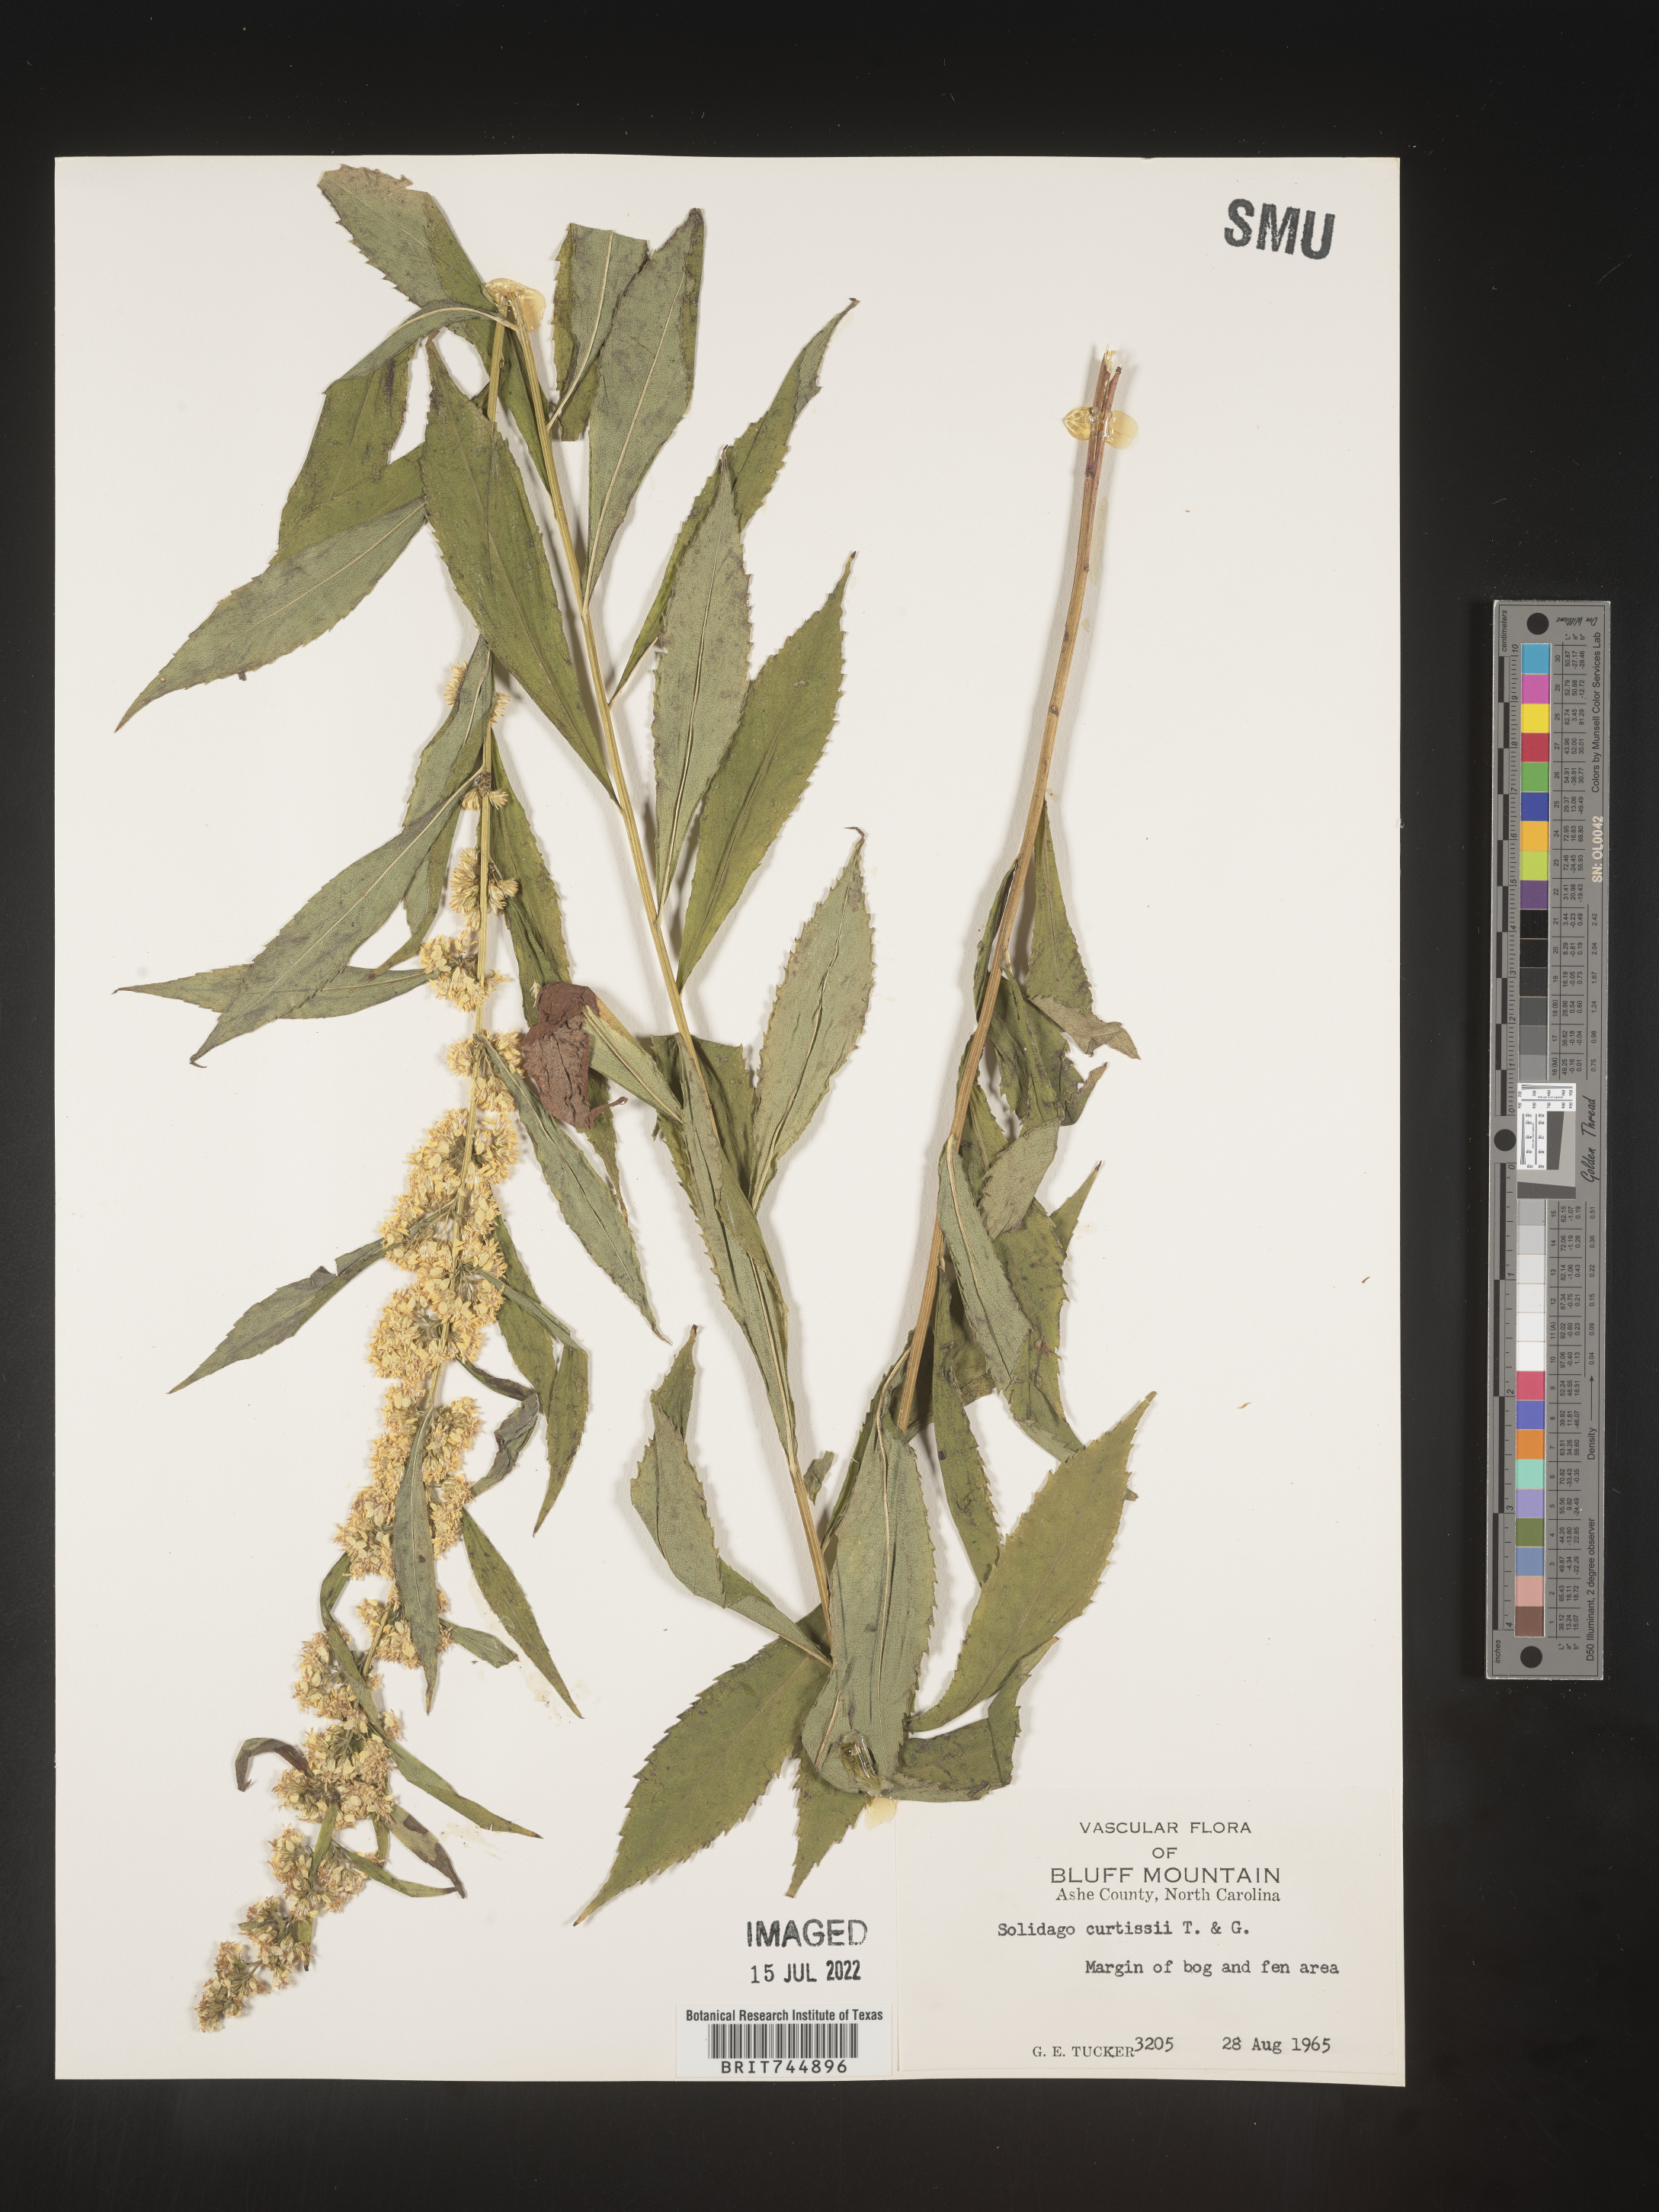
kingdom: Plantae
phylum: Tracheophyta
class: Magnoliopsida
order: Asterales
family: Asteraceae
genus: Solidago
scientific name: Solidago curtisii
